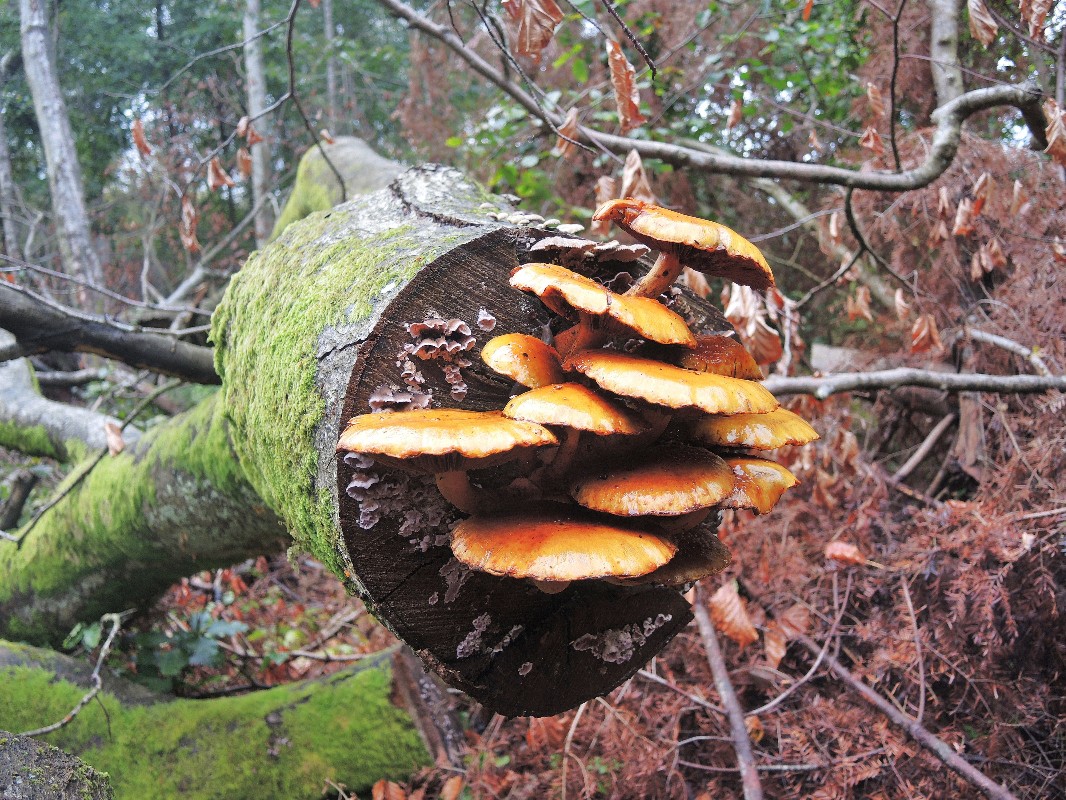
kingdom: Fungi
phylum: Basidiomycota
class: Agaricomycetes
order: Agaricales
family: Strophariaceae
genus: Pholiota
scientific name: Pholiota adiposa
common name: højtsiddende skælhat
